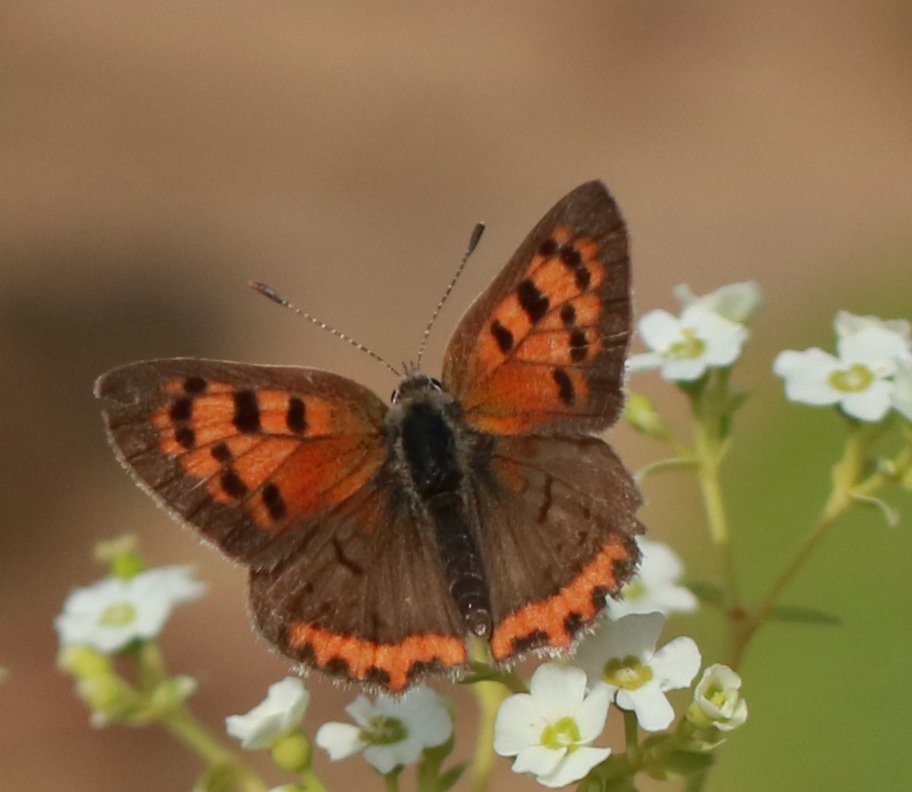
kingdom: Animalia
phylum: Arthropoda
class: Insecta
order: Lepidoptera
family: Lycaenidae
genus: Lycaena
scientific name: Lycaena phlaeas
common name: American Copper
